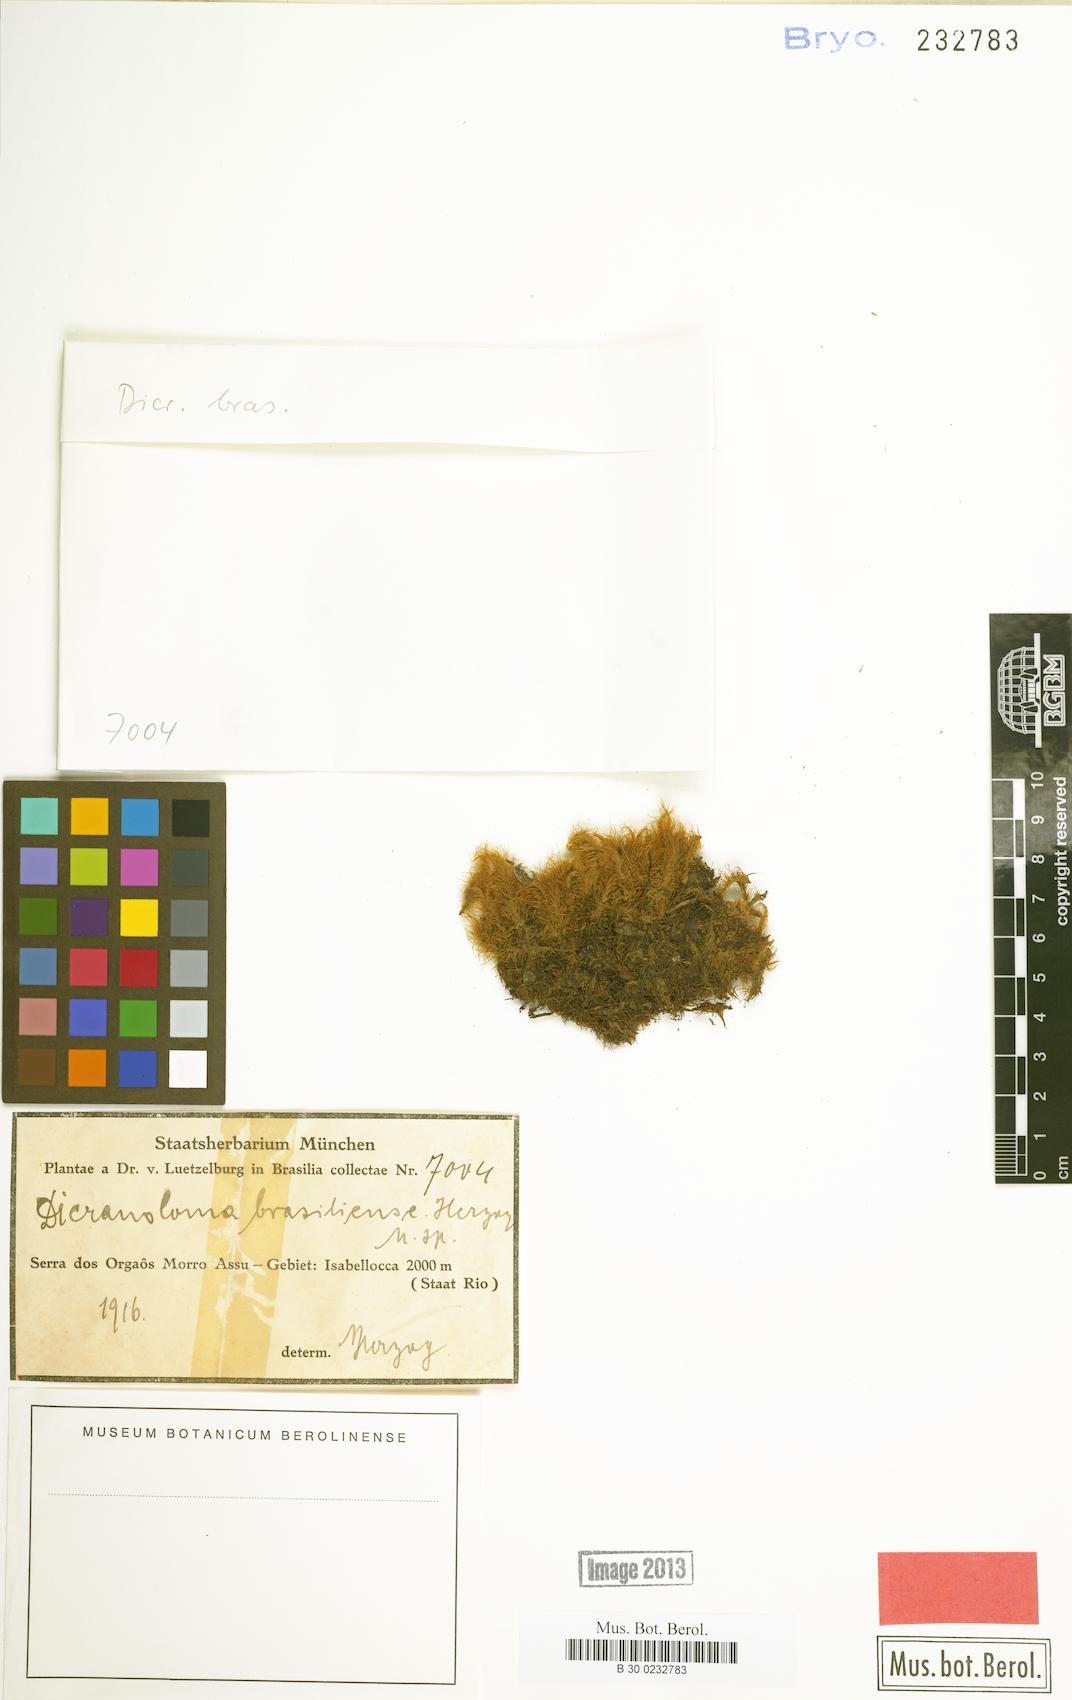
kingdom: Plantae
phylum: Bryophyta
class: Bryopsida
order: Dicranales
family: Dicranaceae
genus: Dicranoloma
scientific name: Dicranoloma brasiliense
